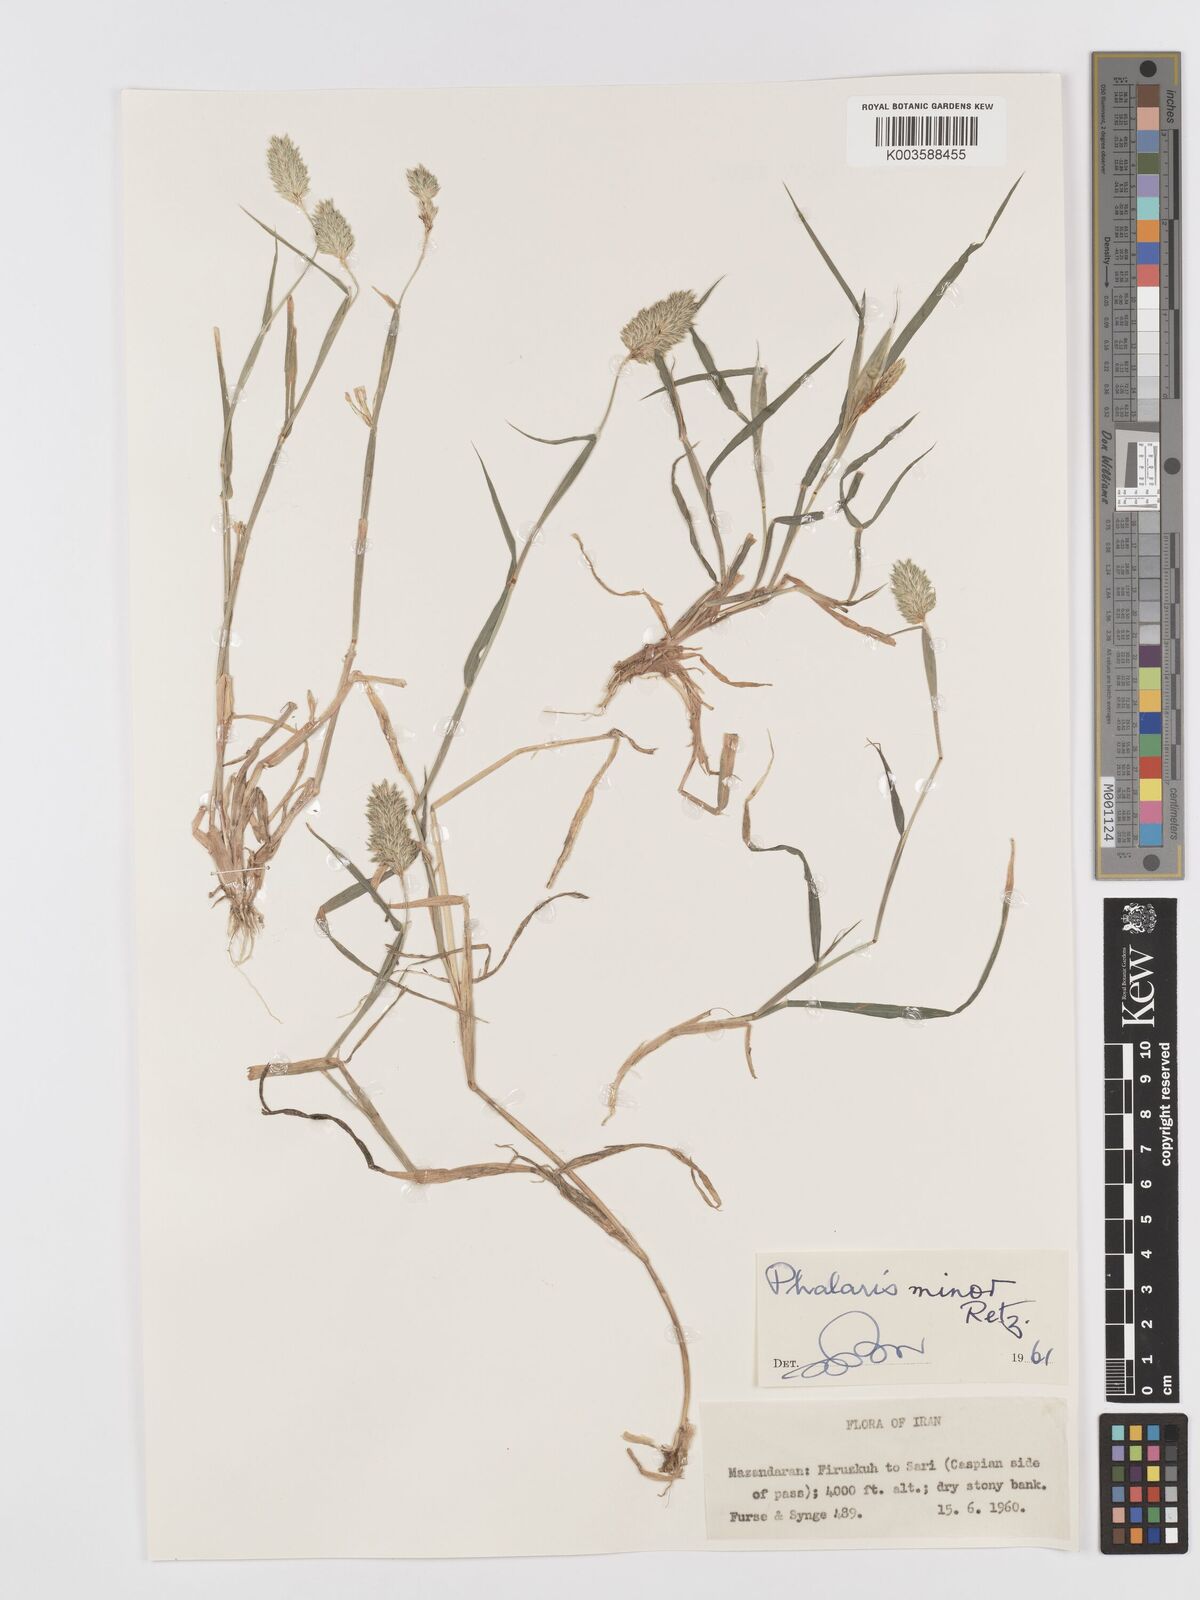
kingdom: Plantae
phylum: Tracheophyta
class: Liliopsida
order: Poales
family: Poaceae
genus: Phalaris
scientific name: Phalaris minor
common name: Littleseed canarygrass
